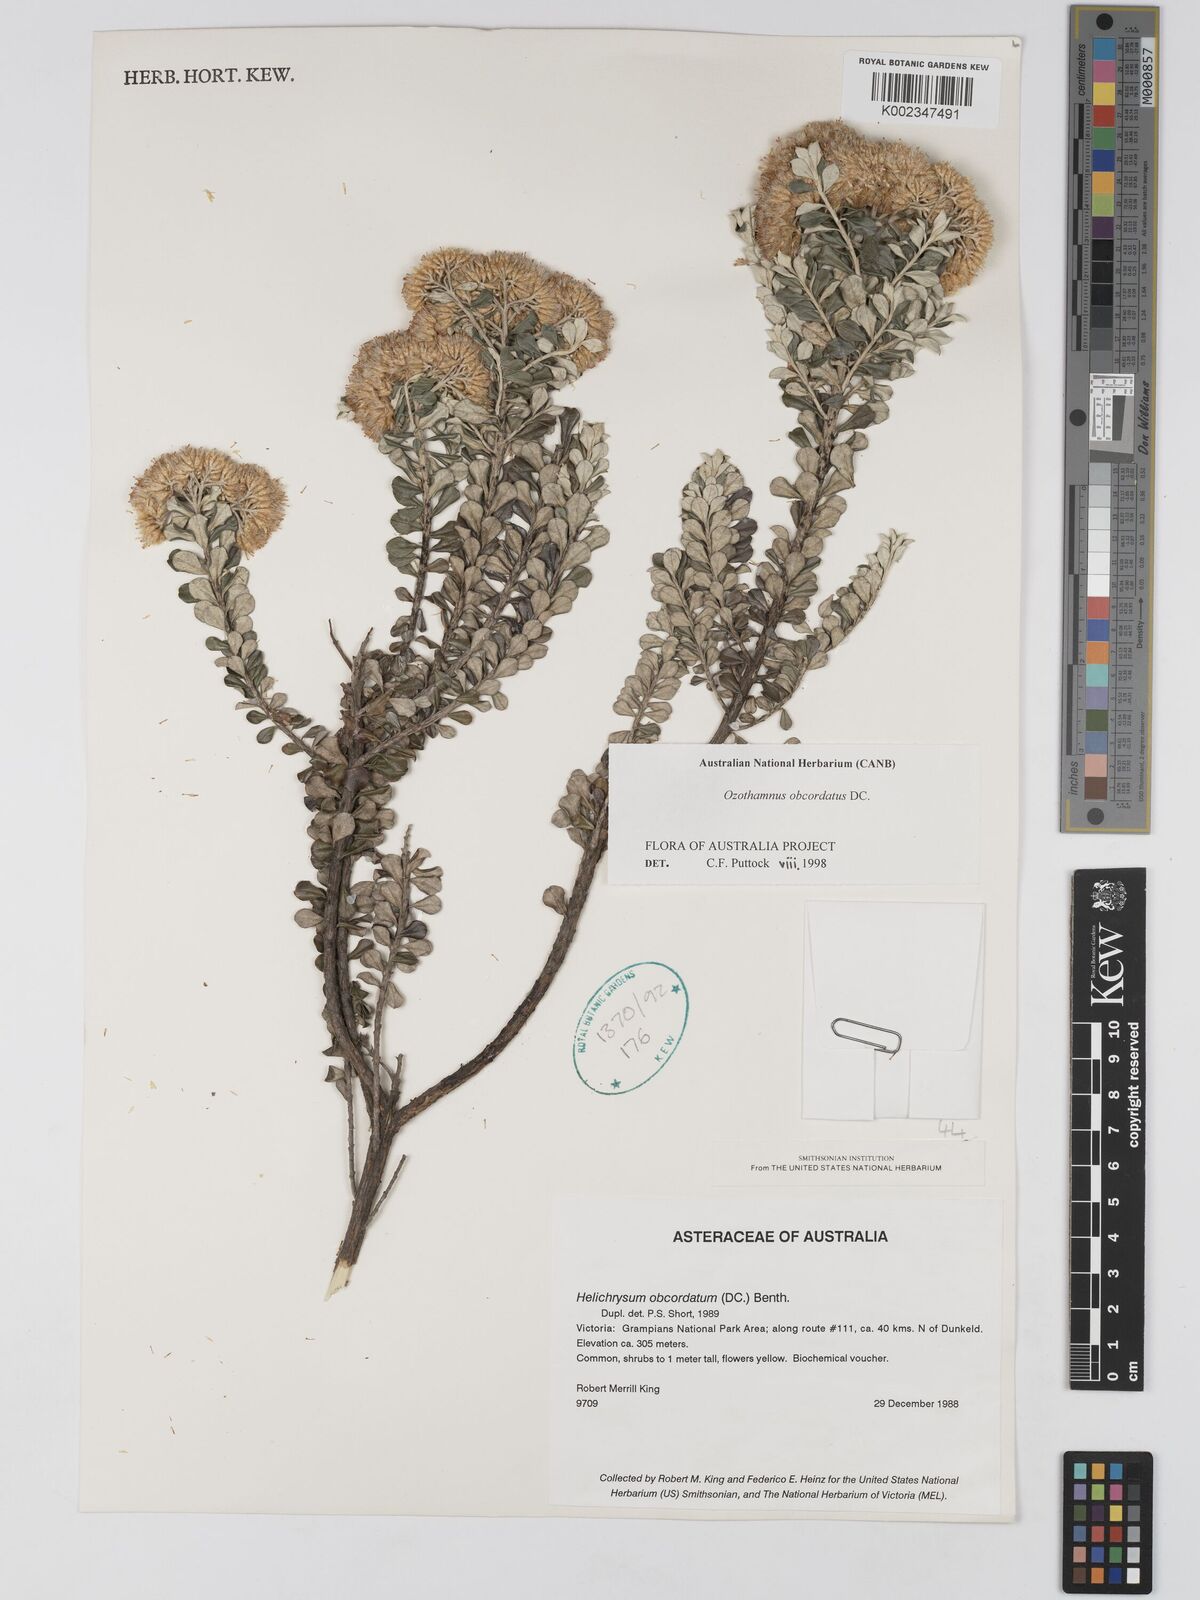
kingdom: Plantae
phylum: Tracheophyta
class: Magnoliopsida
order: Asterales
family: Asteraceae
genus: Ozothamnus
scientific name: Ozothamnus obcordatus
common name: Grey everlasting
